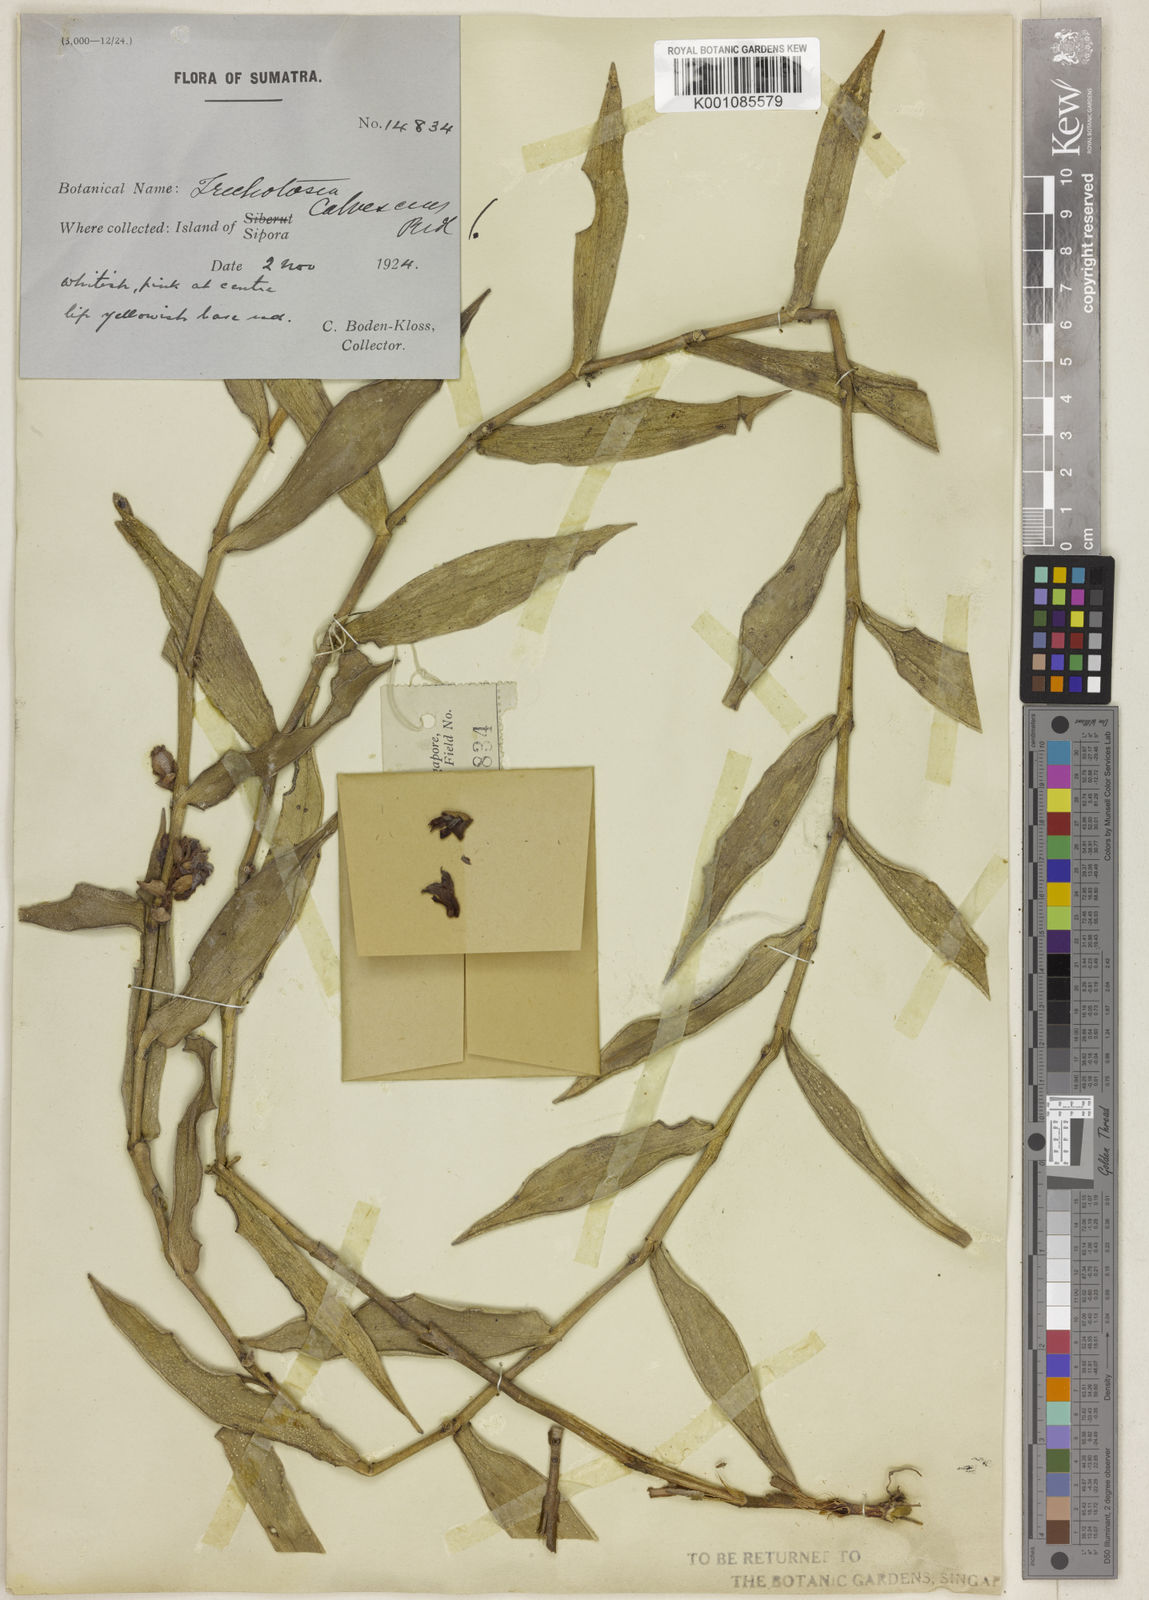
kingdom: Plantae
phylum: Tracheophyta
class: Liliopsida
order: Asparagales
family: Orchidaceae
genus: Trichotosia
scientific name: Trichotosia calvescens
